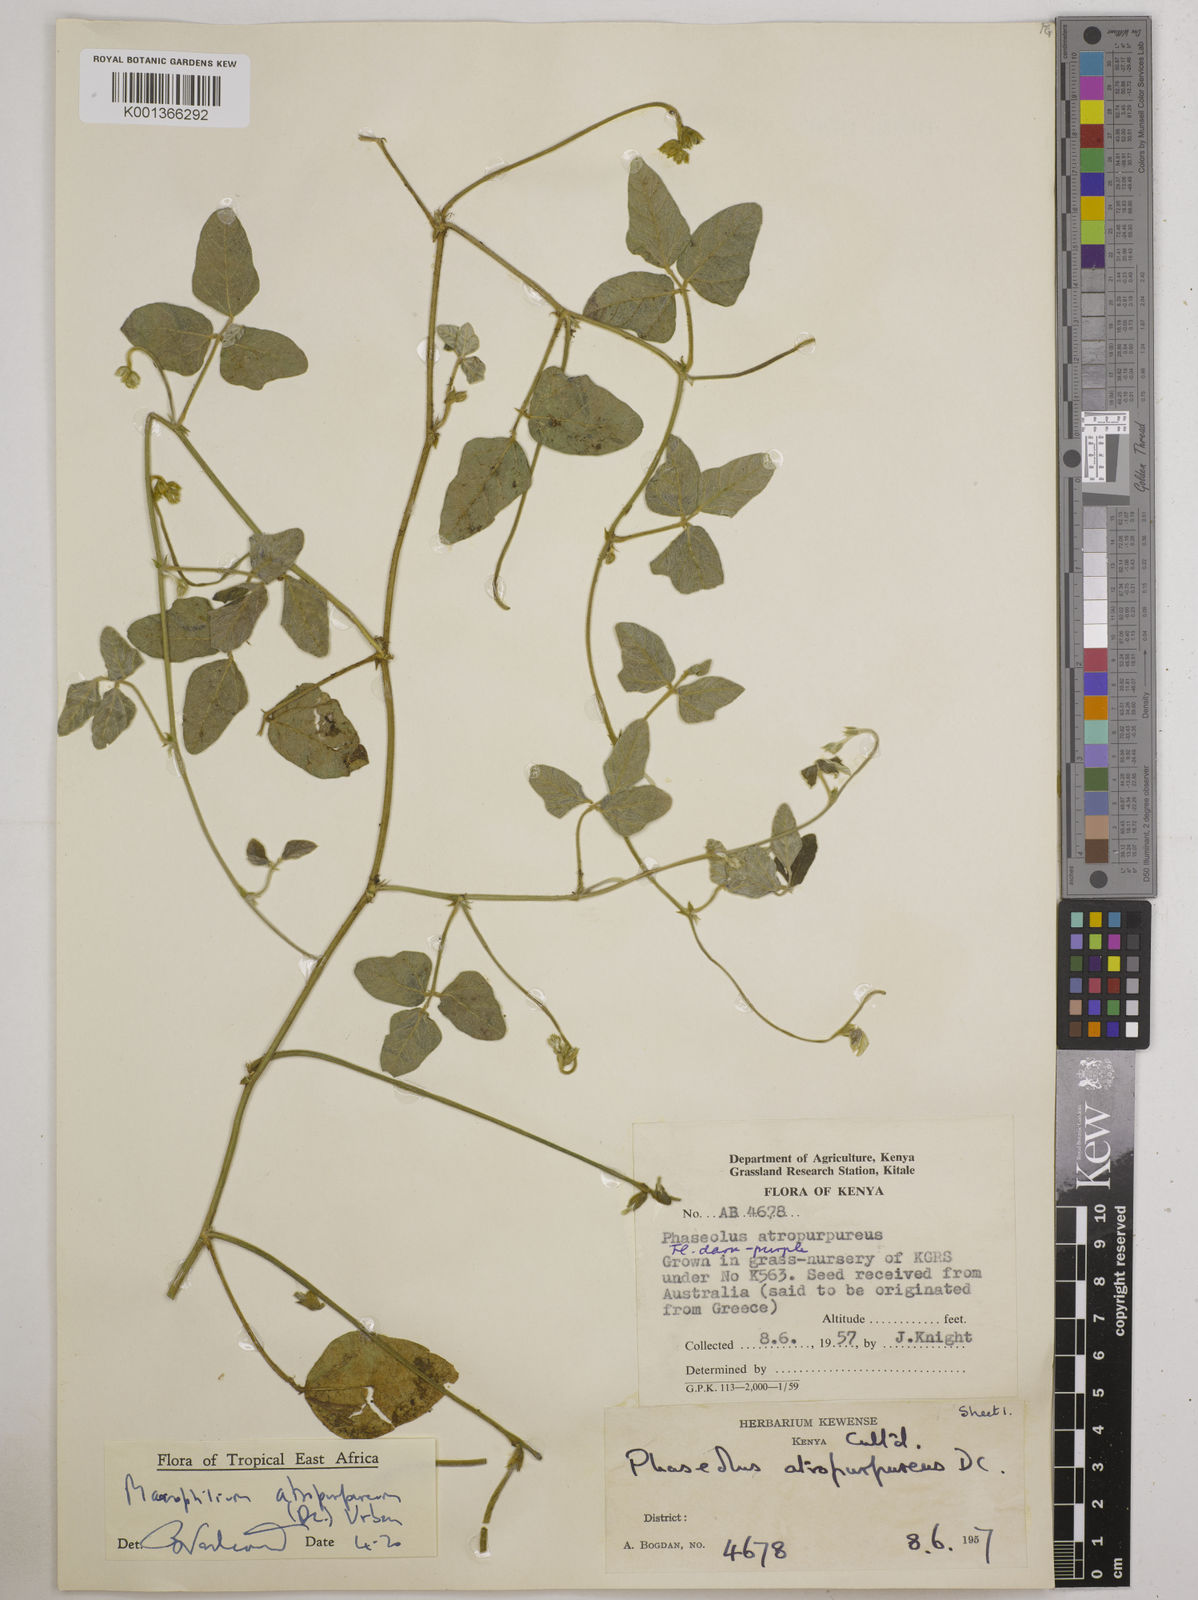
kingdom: Plantae
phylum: Tracheophyta
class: Magnoliopsida
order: Fabales
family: Fabaceae
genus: Macroptilium
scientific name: Macroptilium atropurpureum
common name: Purple bushbean
